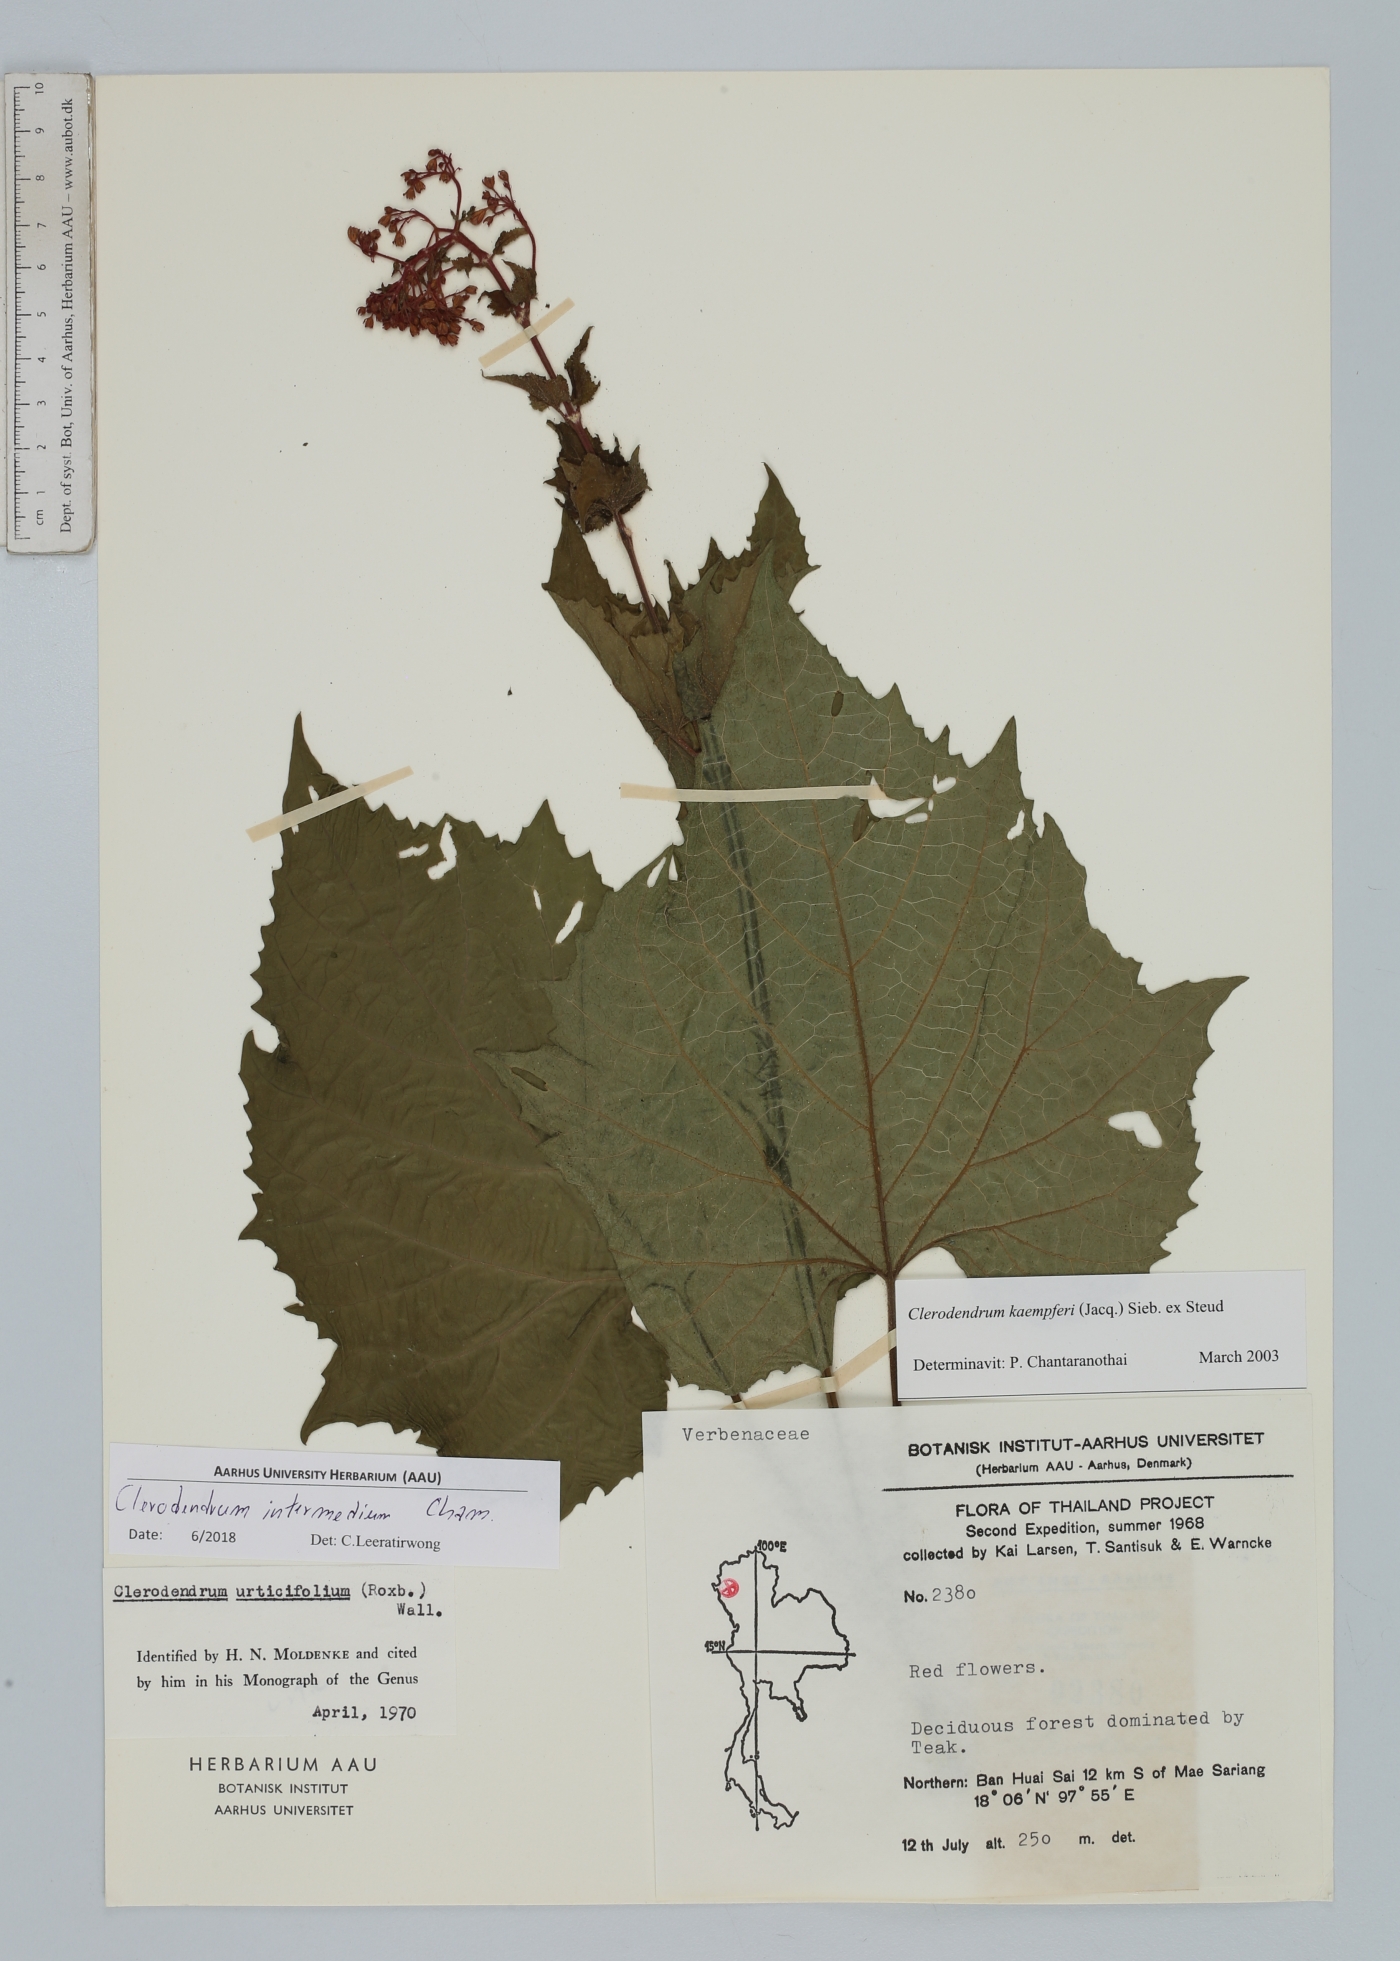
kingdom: Plantae
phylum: Tracheophyta
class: Magnoliopsida
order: Lamiales
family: Lamiaceae
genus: Clerodendrum
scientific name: Clerodendrum intermedium
